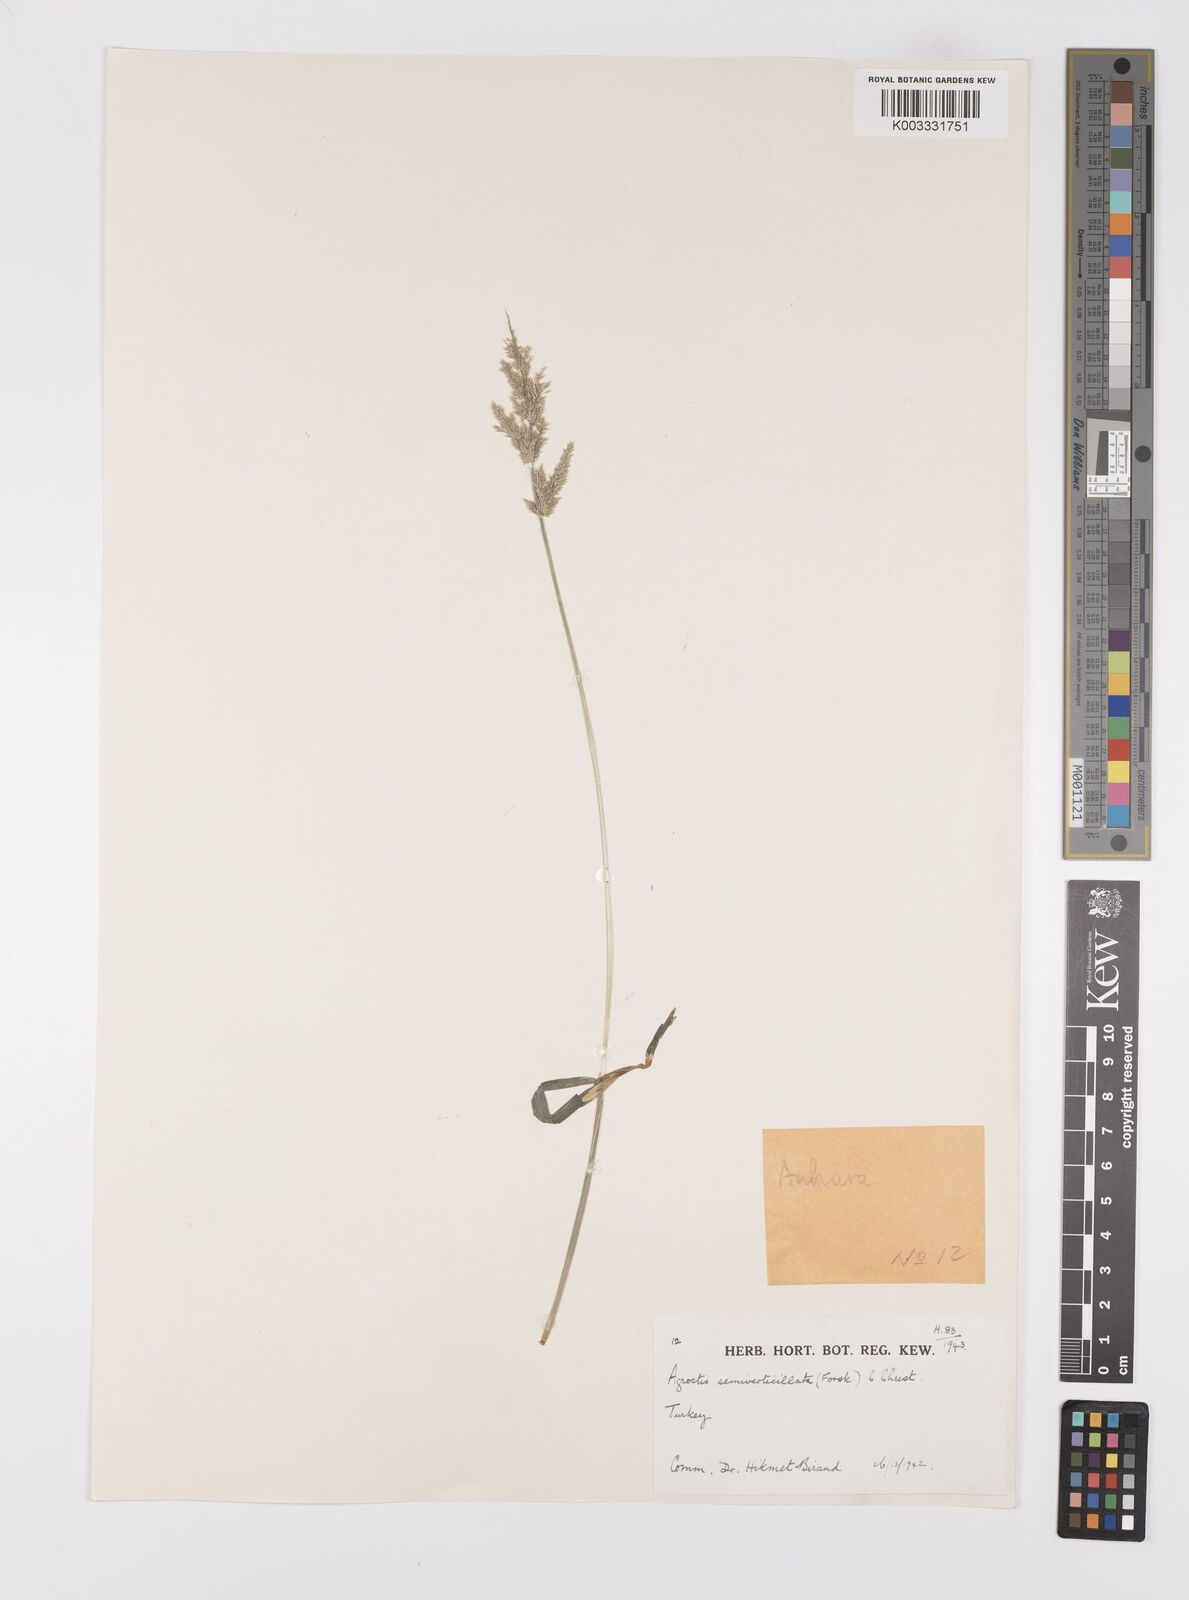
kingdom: Plantae
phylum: Tracheophyta
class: Liliopsida
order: Poales
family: Poaceae
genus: Polypogon
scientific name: Polypogon viridis
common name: Water bent
